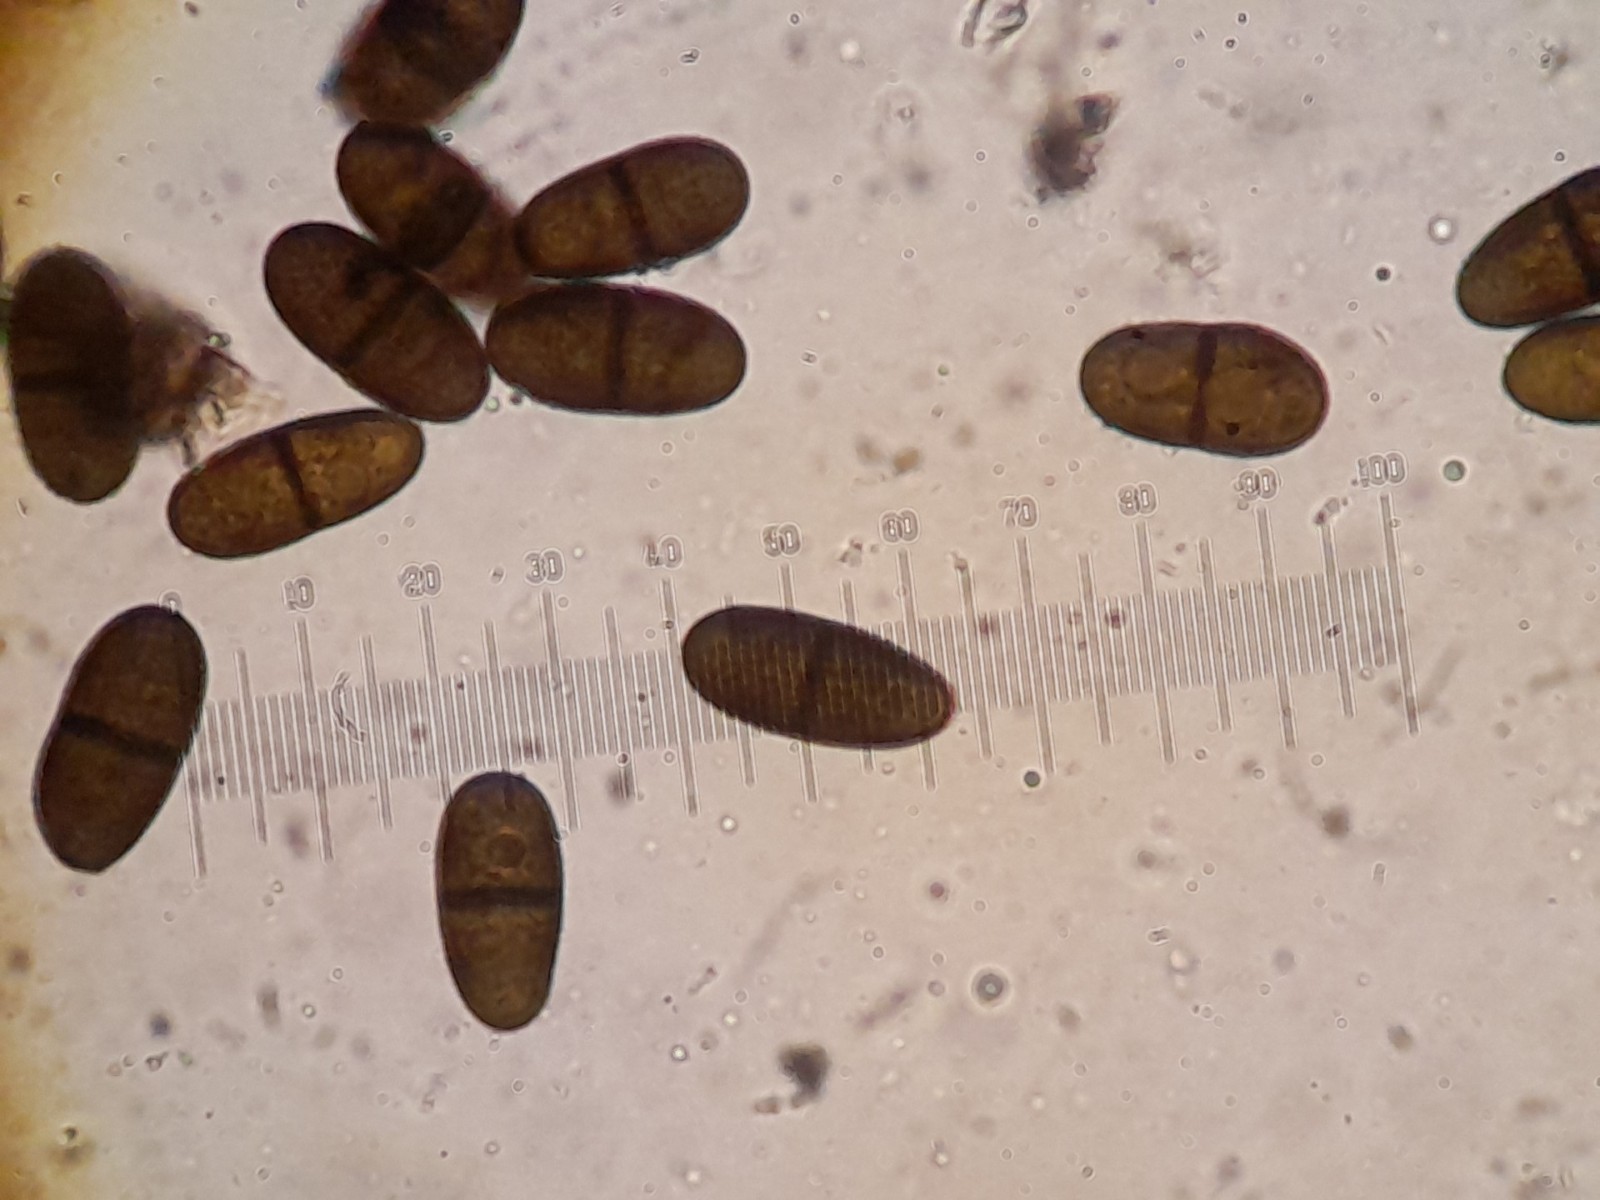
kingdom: Fungi
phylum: Ascomycota
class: Dothideomycetes
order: Botryosphaeriales
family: Botryosphaeriaceae
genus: Diplodia
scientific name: Diplodia
